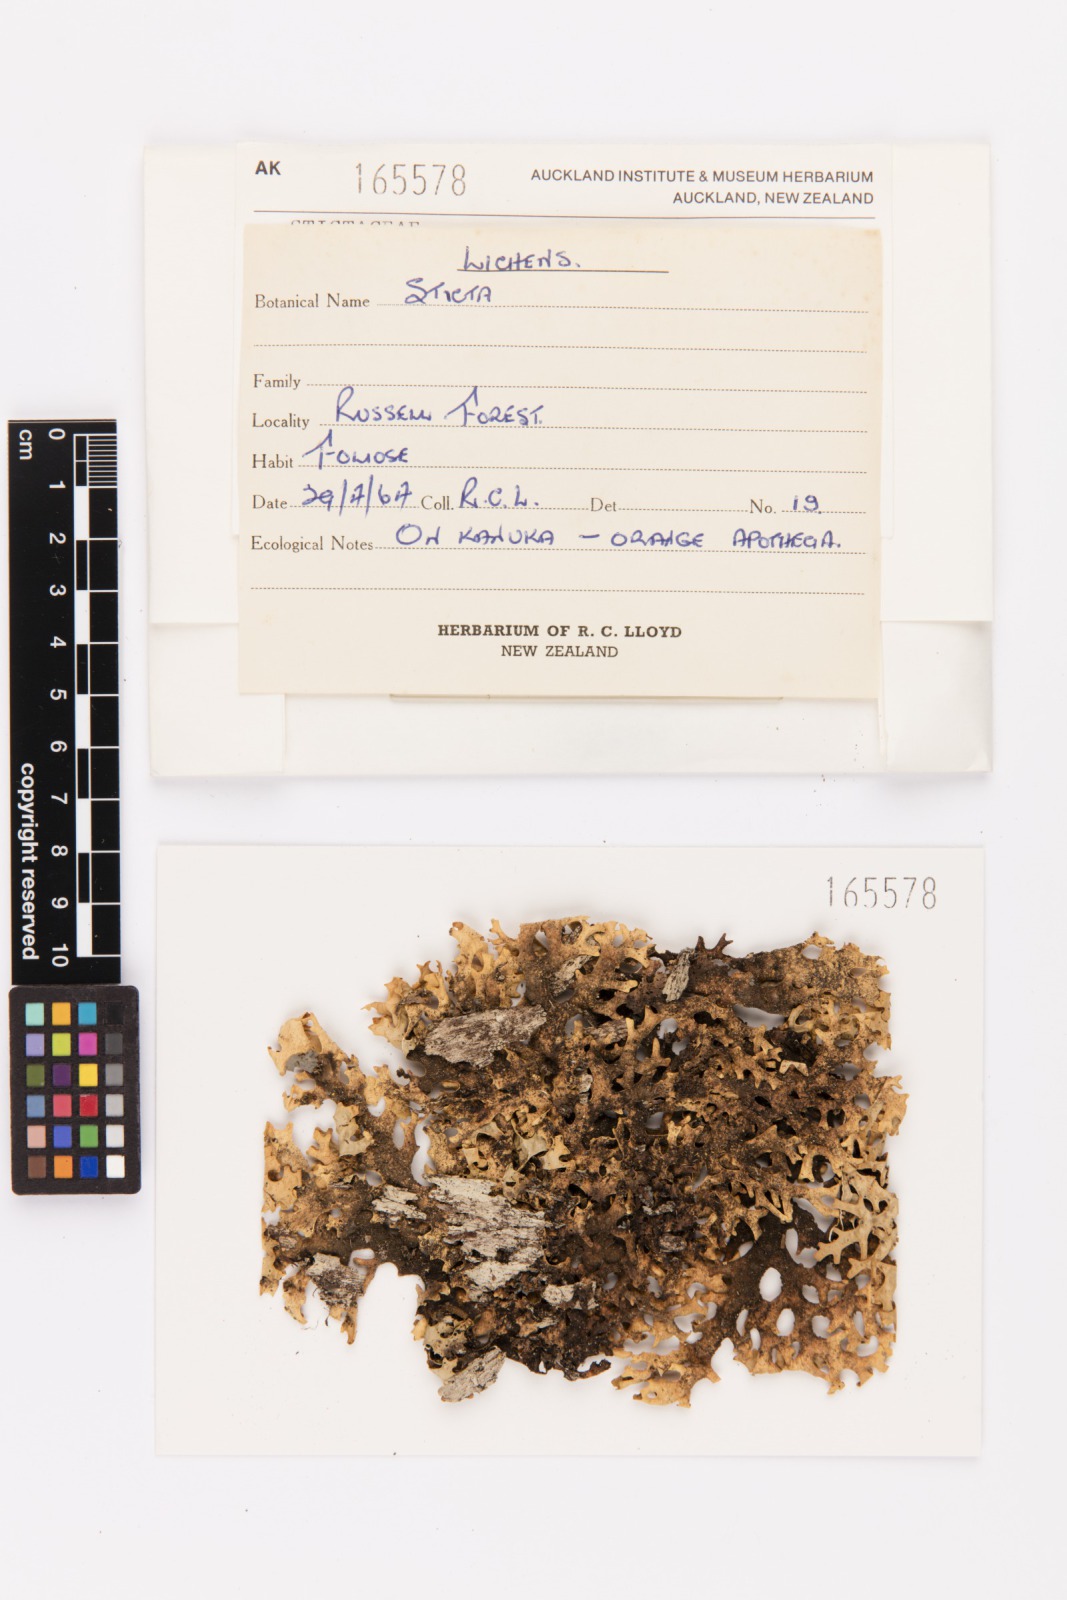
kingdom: Fungi
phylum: Ascomycota
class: Lecanoromycetes
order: Peltigerales
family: Lobariaceae
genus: Pseudocyphellaria
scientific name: Pseudocyphellaria carpoloma
